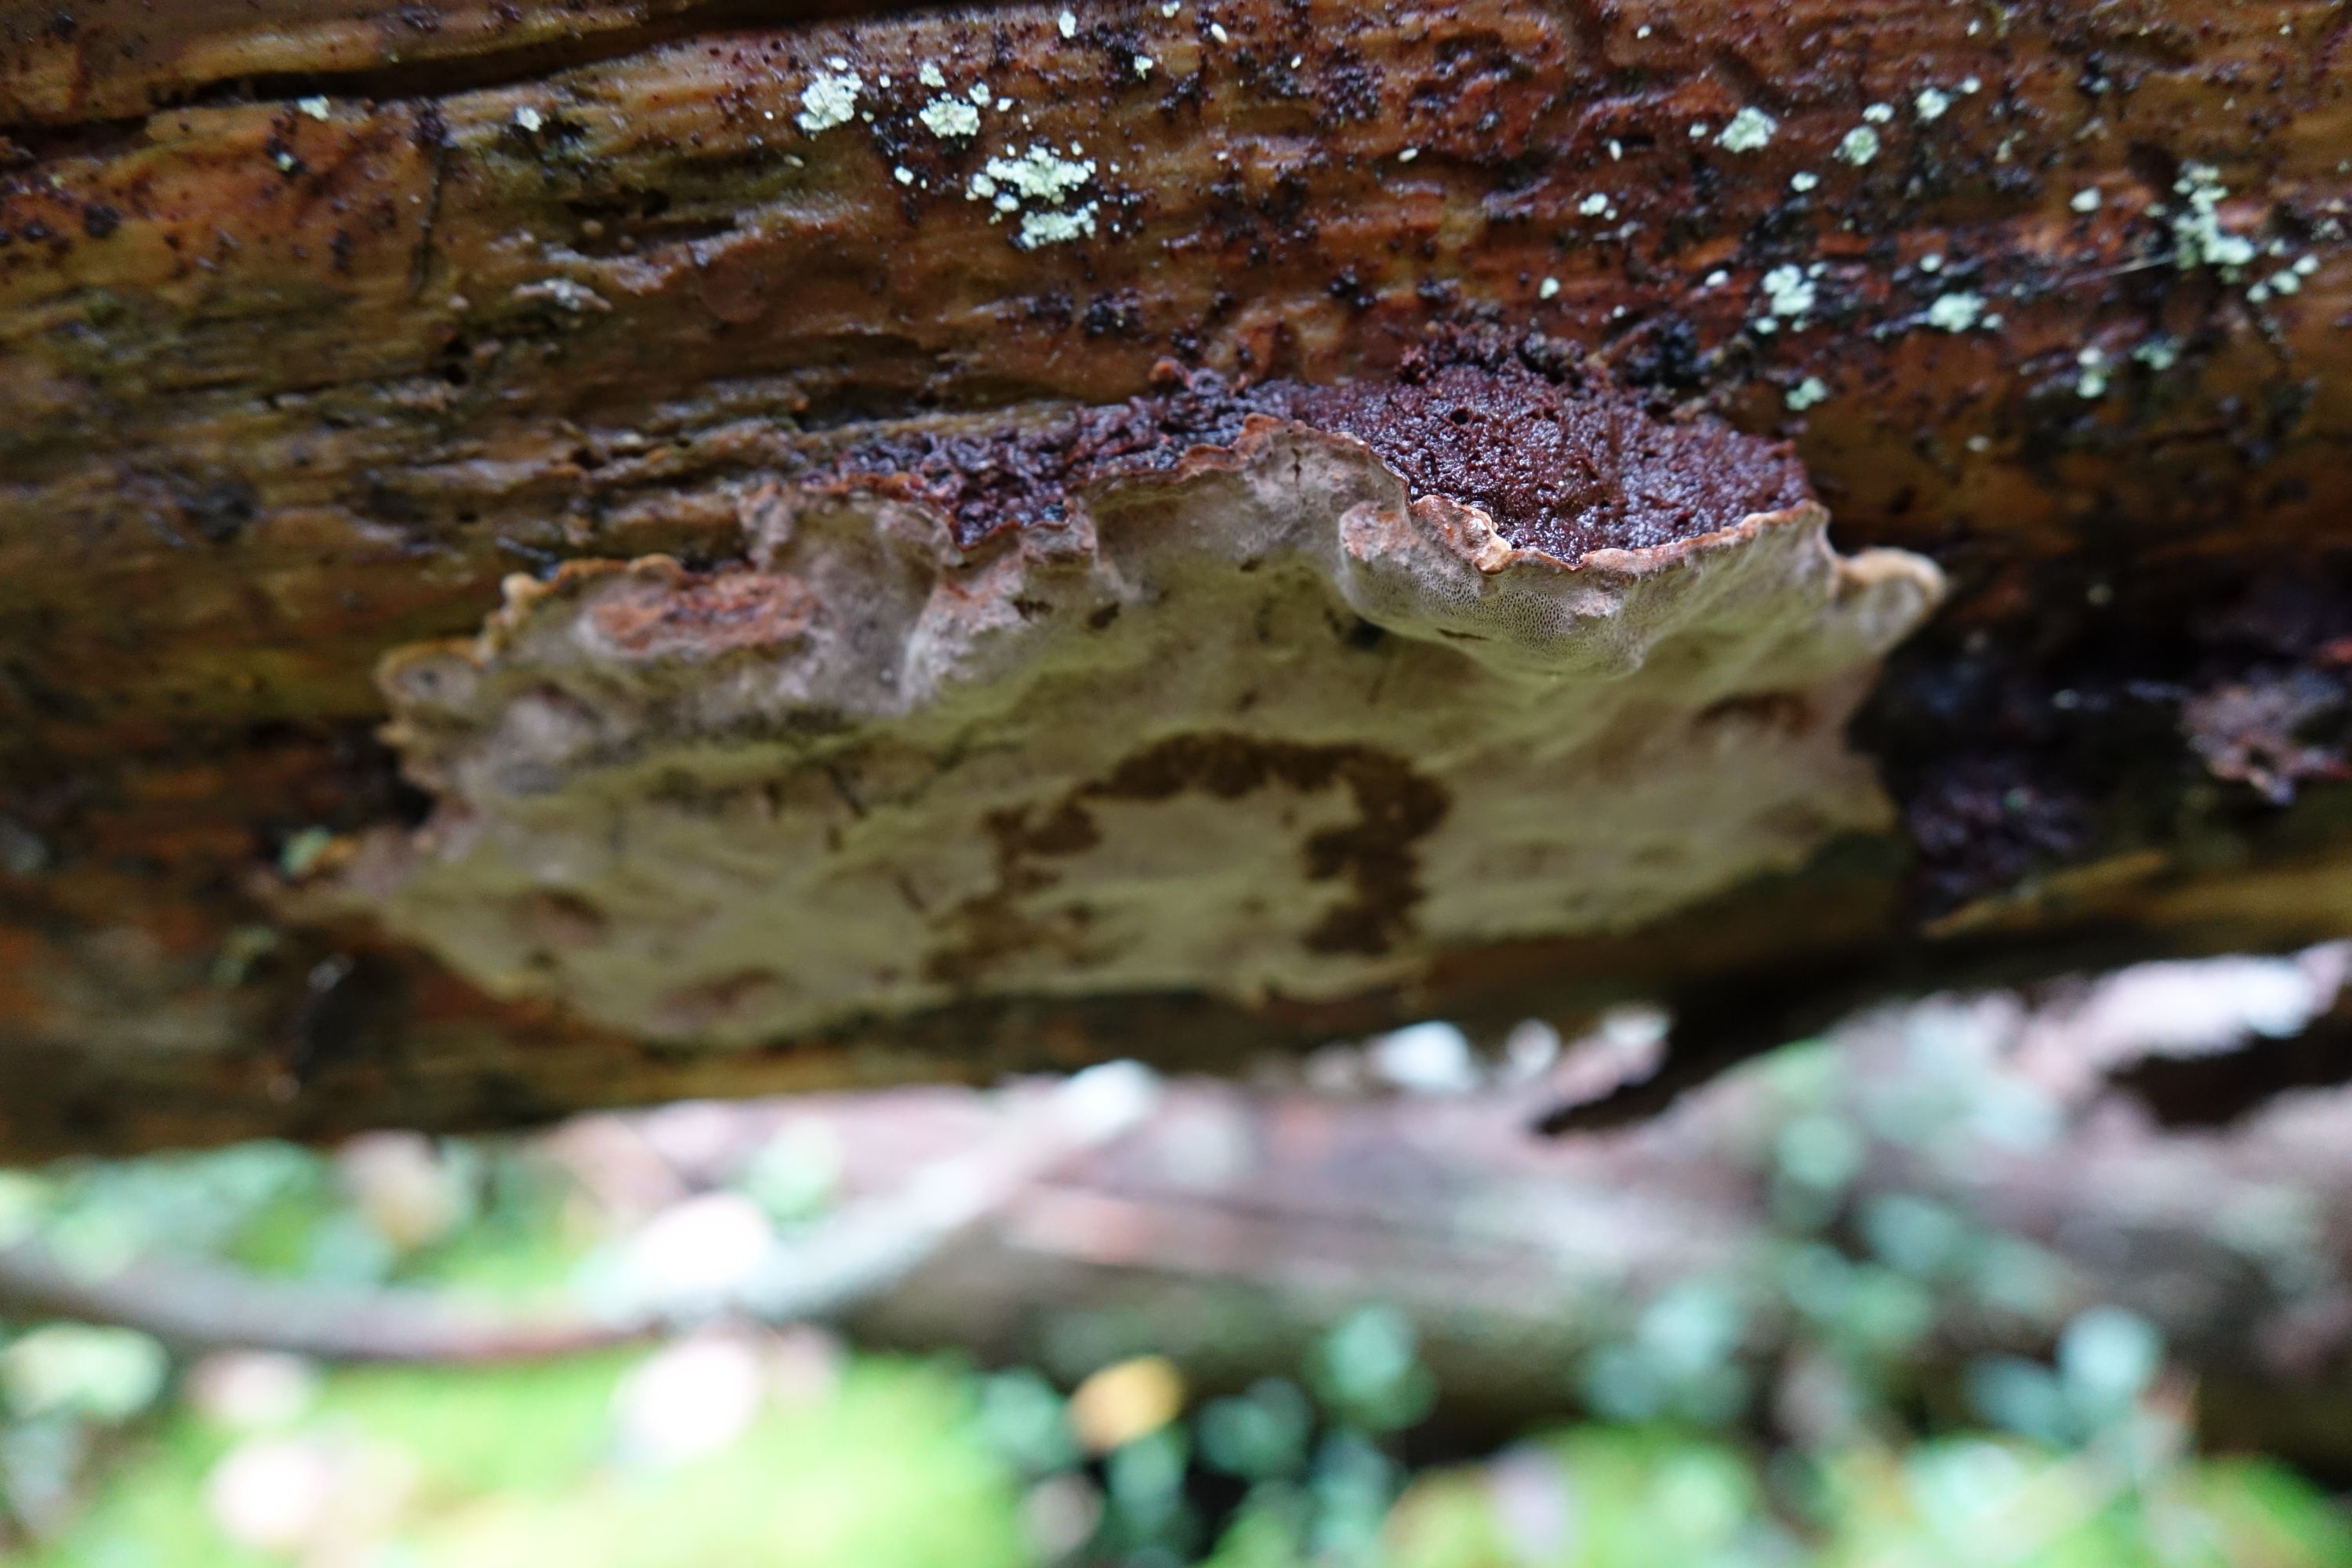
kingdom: Fungi
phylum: Basidiomycota
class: Agaricomycetes
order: Hymenochaetales
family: Hymenochaetaceae
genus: Phellopilus
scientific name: Phellopilus nigrolimitatus
